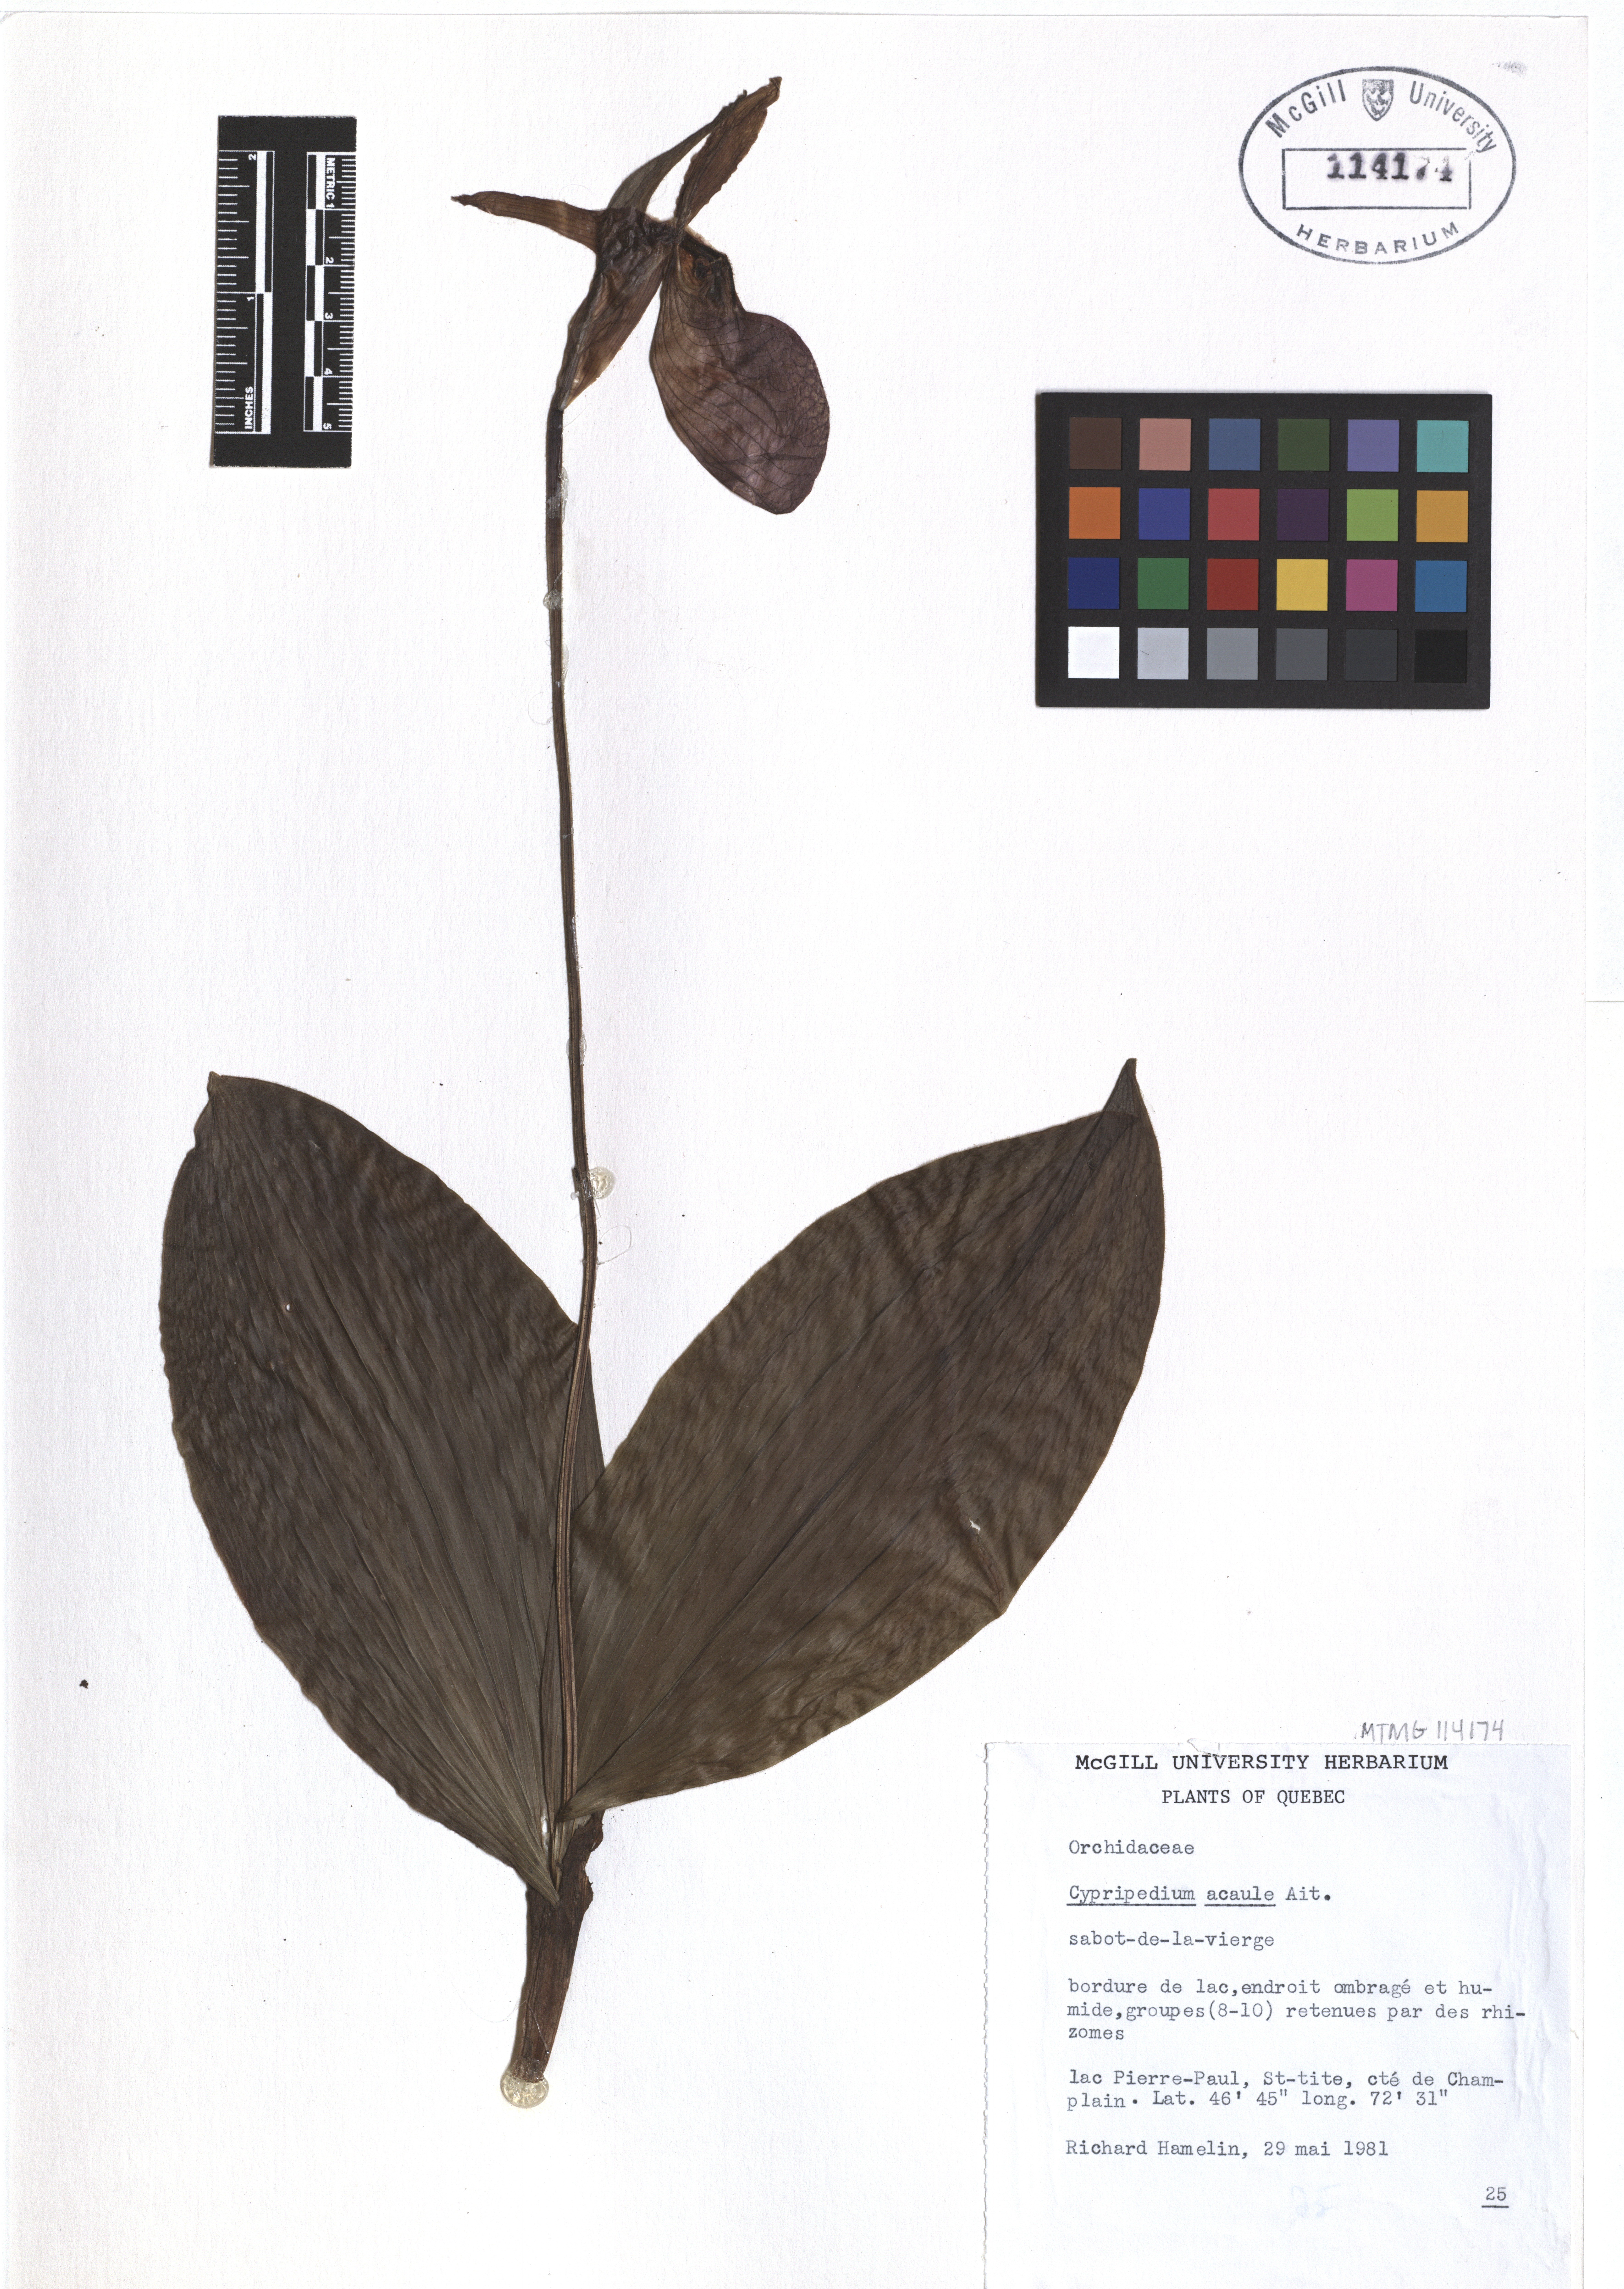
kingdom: Plantae
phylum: Tracheophyta
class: Liliopsida
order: Asparagales
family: Orchidaceae
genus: Cypripedium
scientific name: Cypripedium acaule
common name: Pink lady's-slipper
